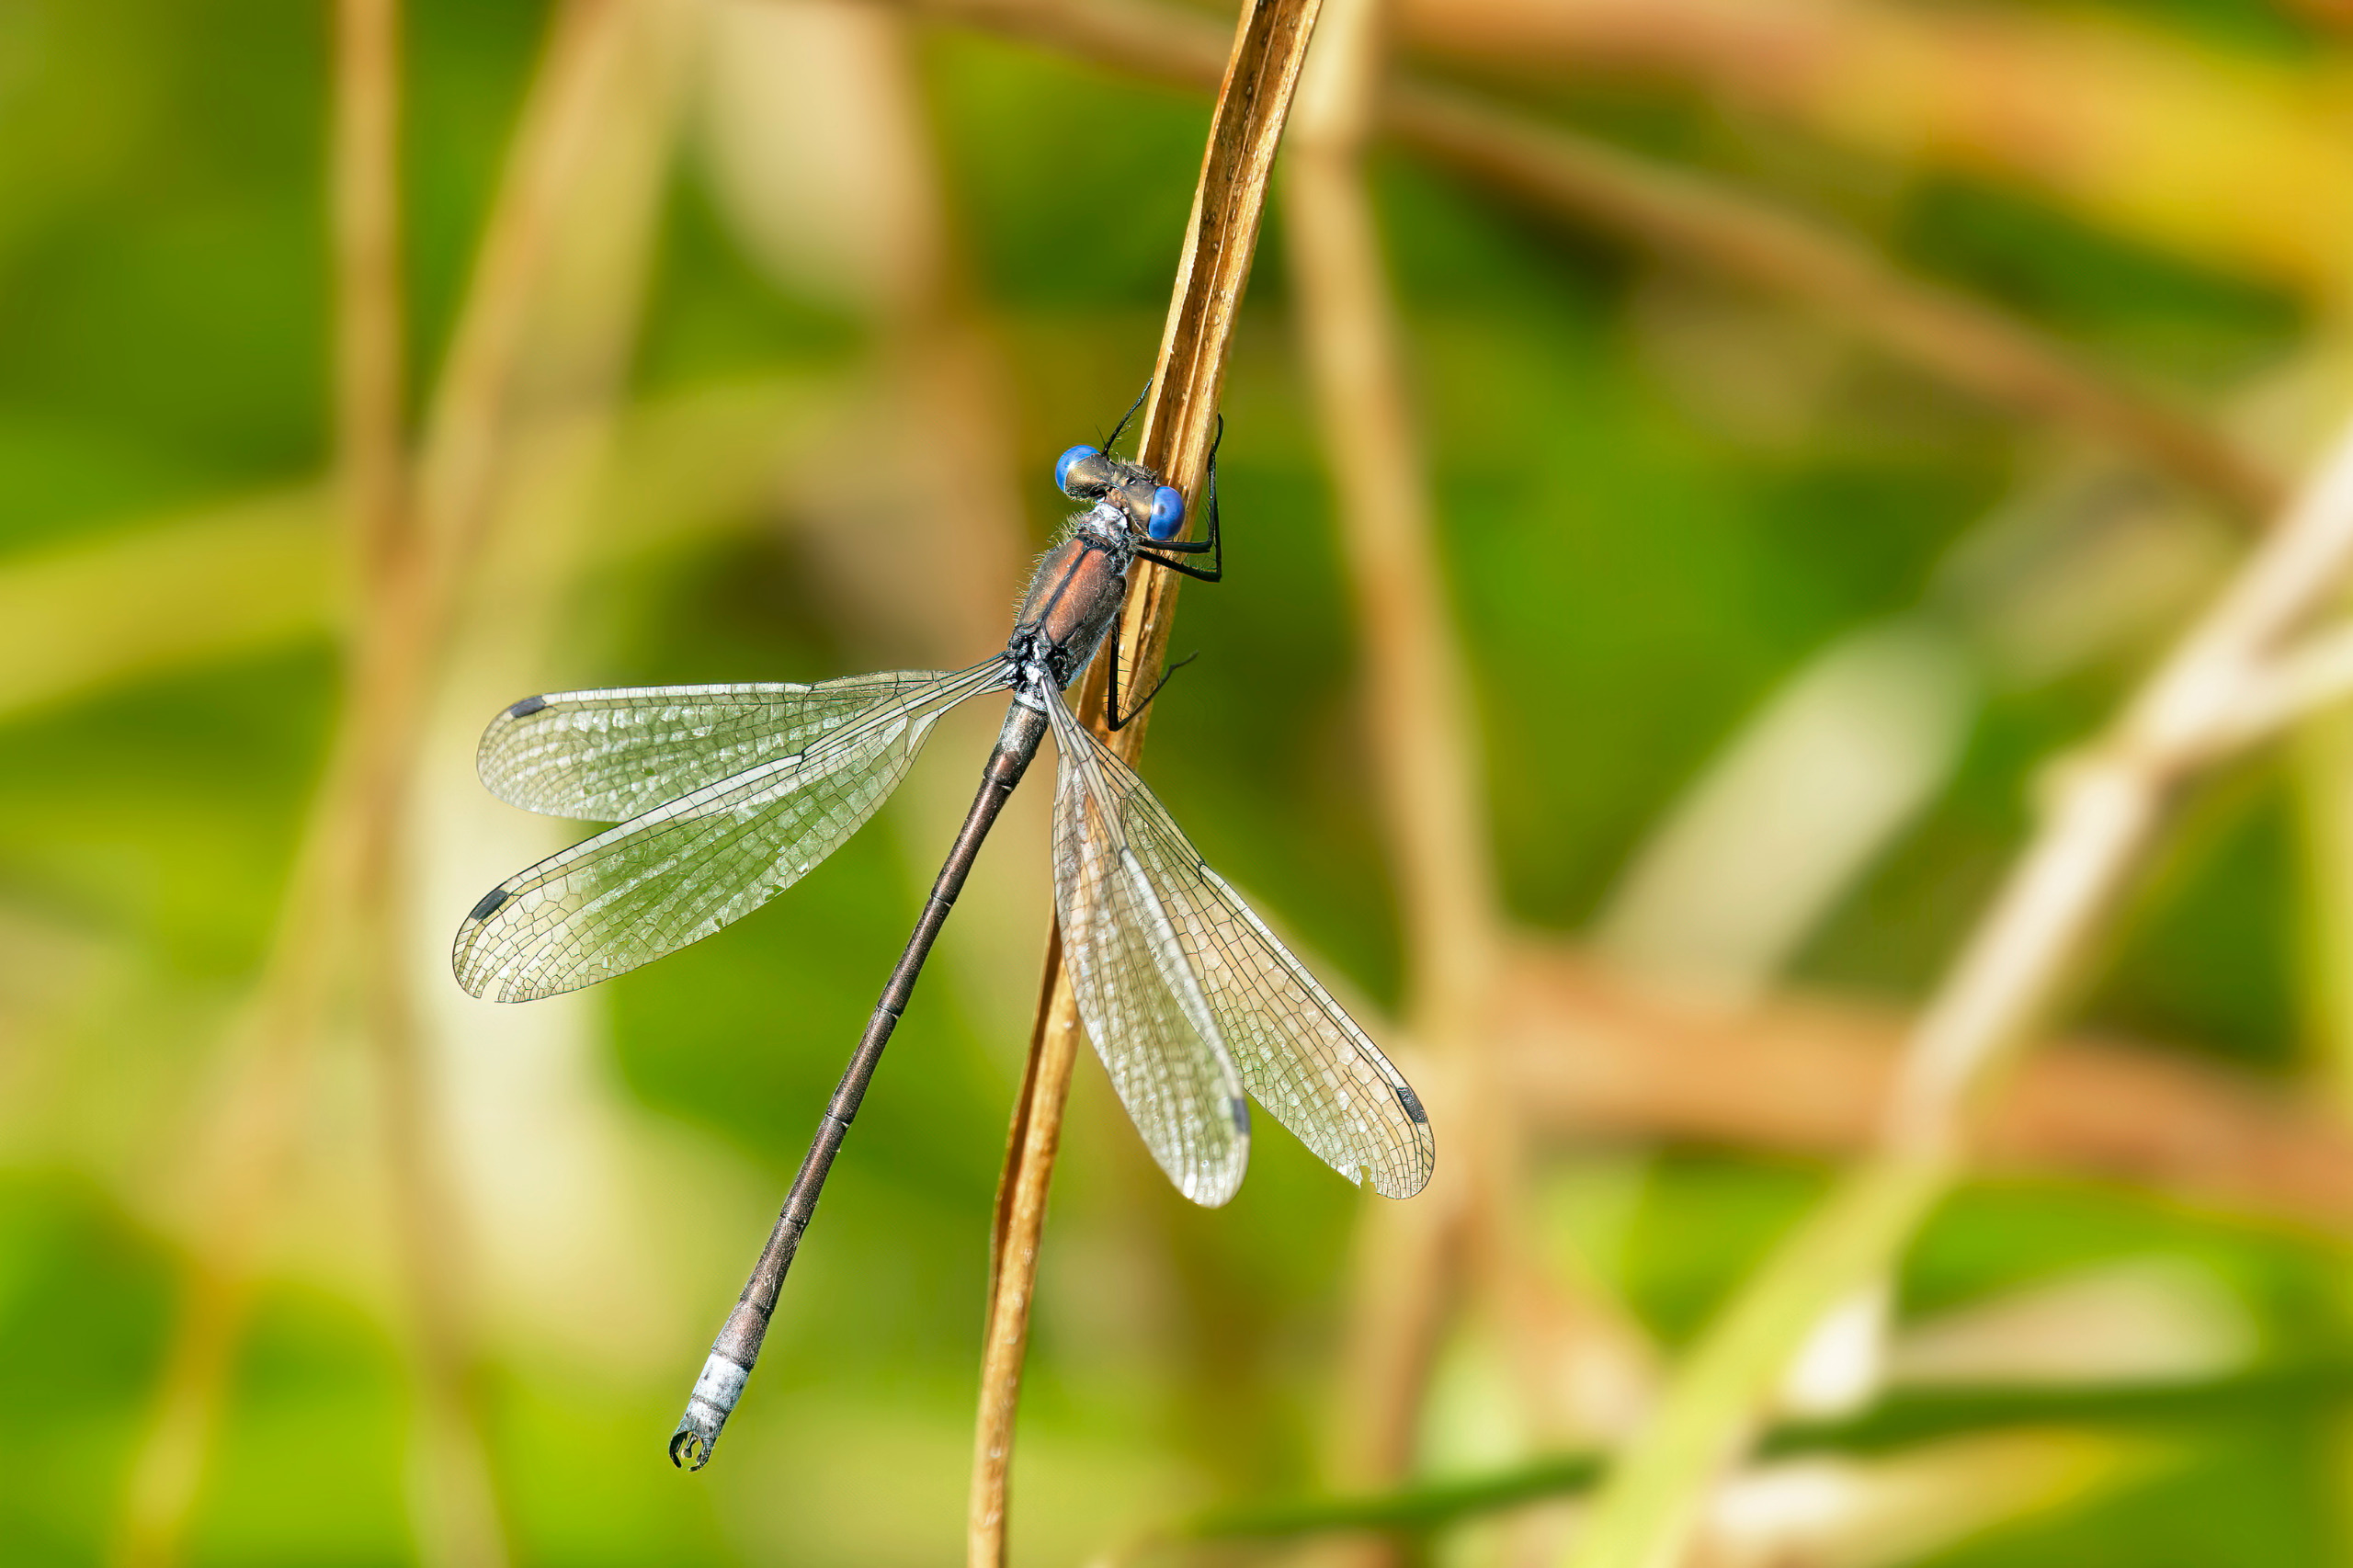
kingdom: Animalia
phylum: Arthropoda
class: Insecta
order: Odonata
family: Lestidae
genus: Lestes
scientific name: Lestes dryas
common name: Sortmærket kobbervandnymfe
